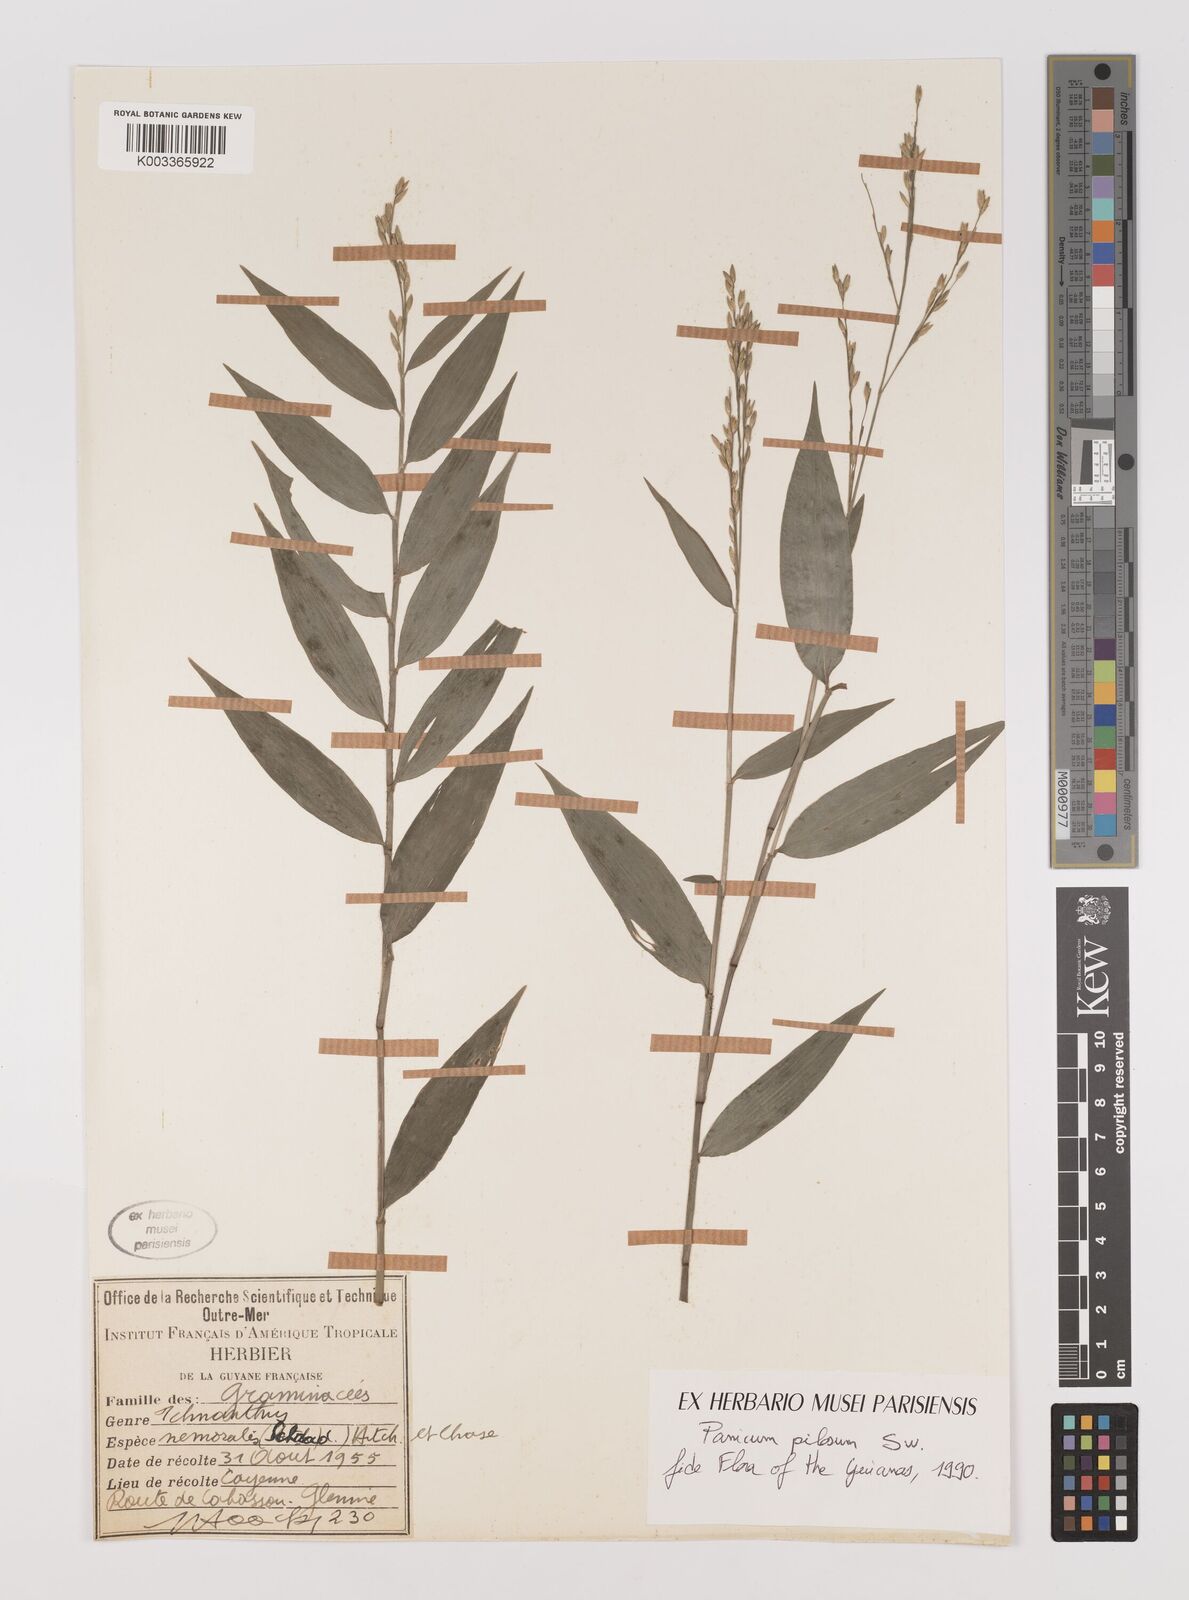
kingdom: Plantae
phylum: Tracheophyta
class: Liliopsida
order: Poales
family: Poaceae
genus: Ichnanthus
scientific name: Ichnanthus nemoralis
